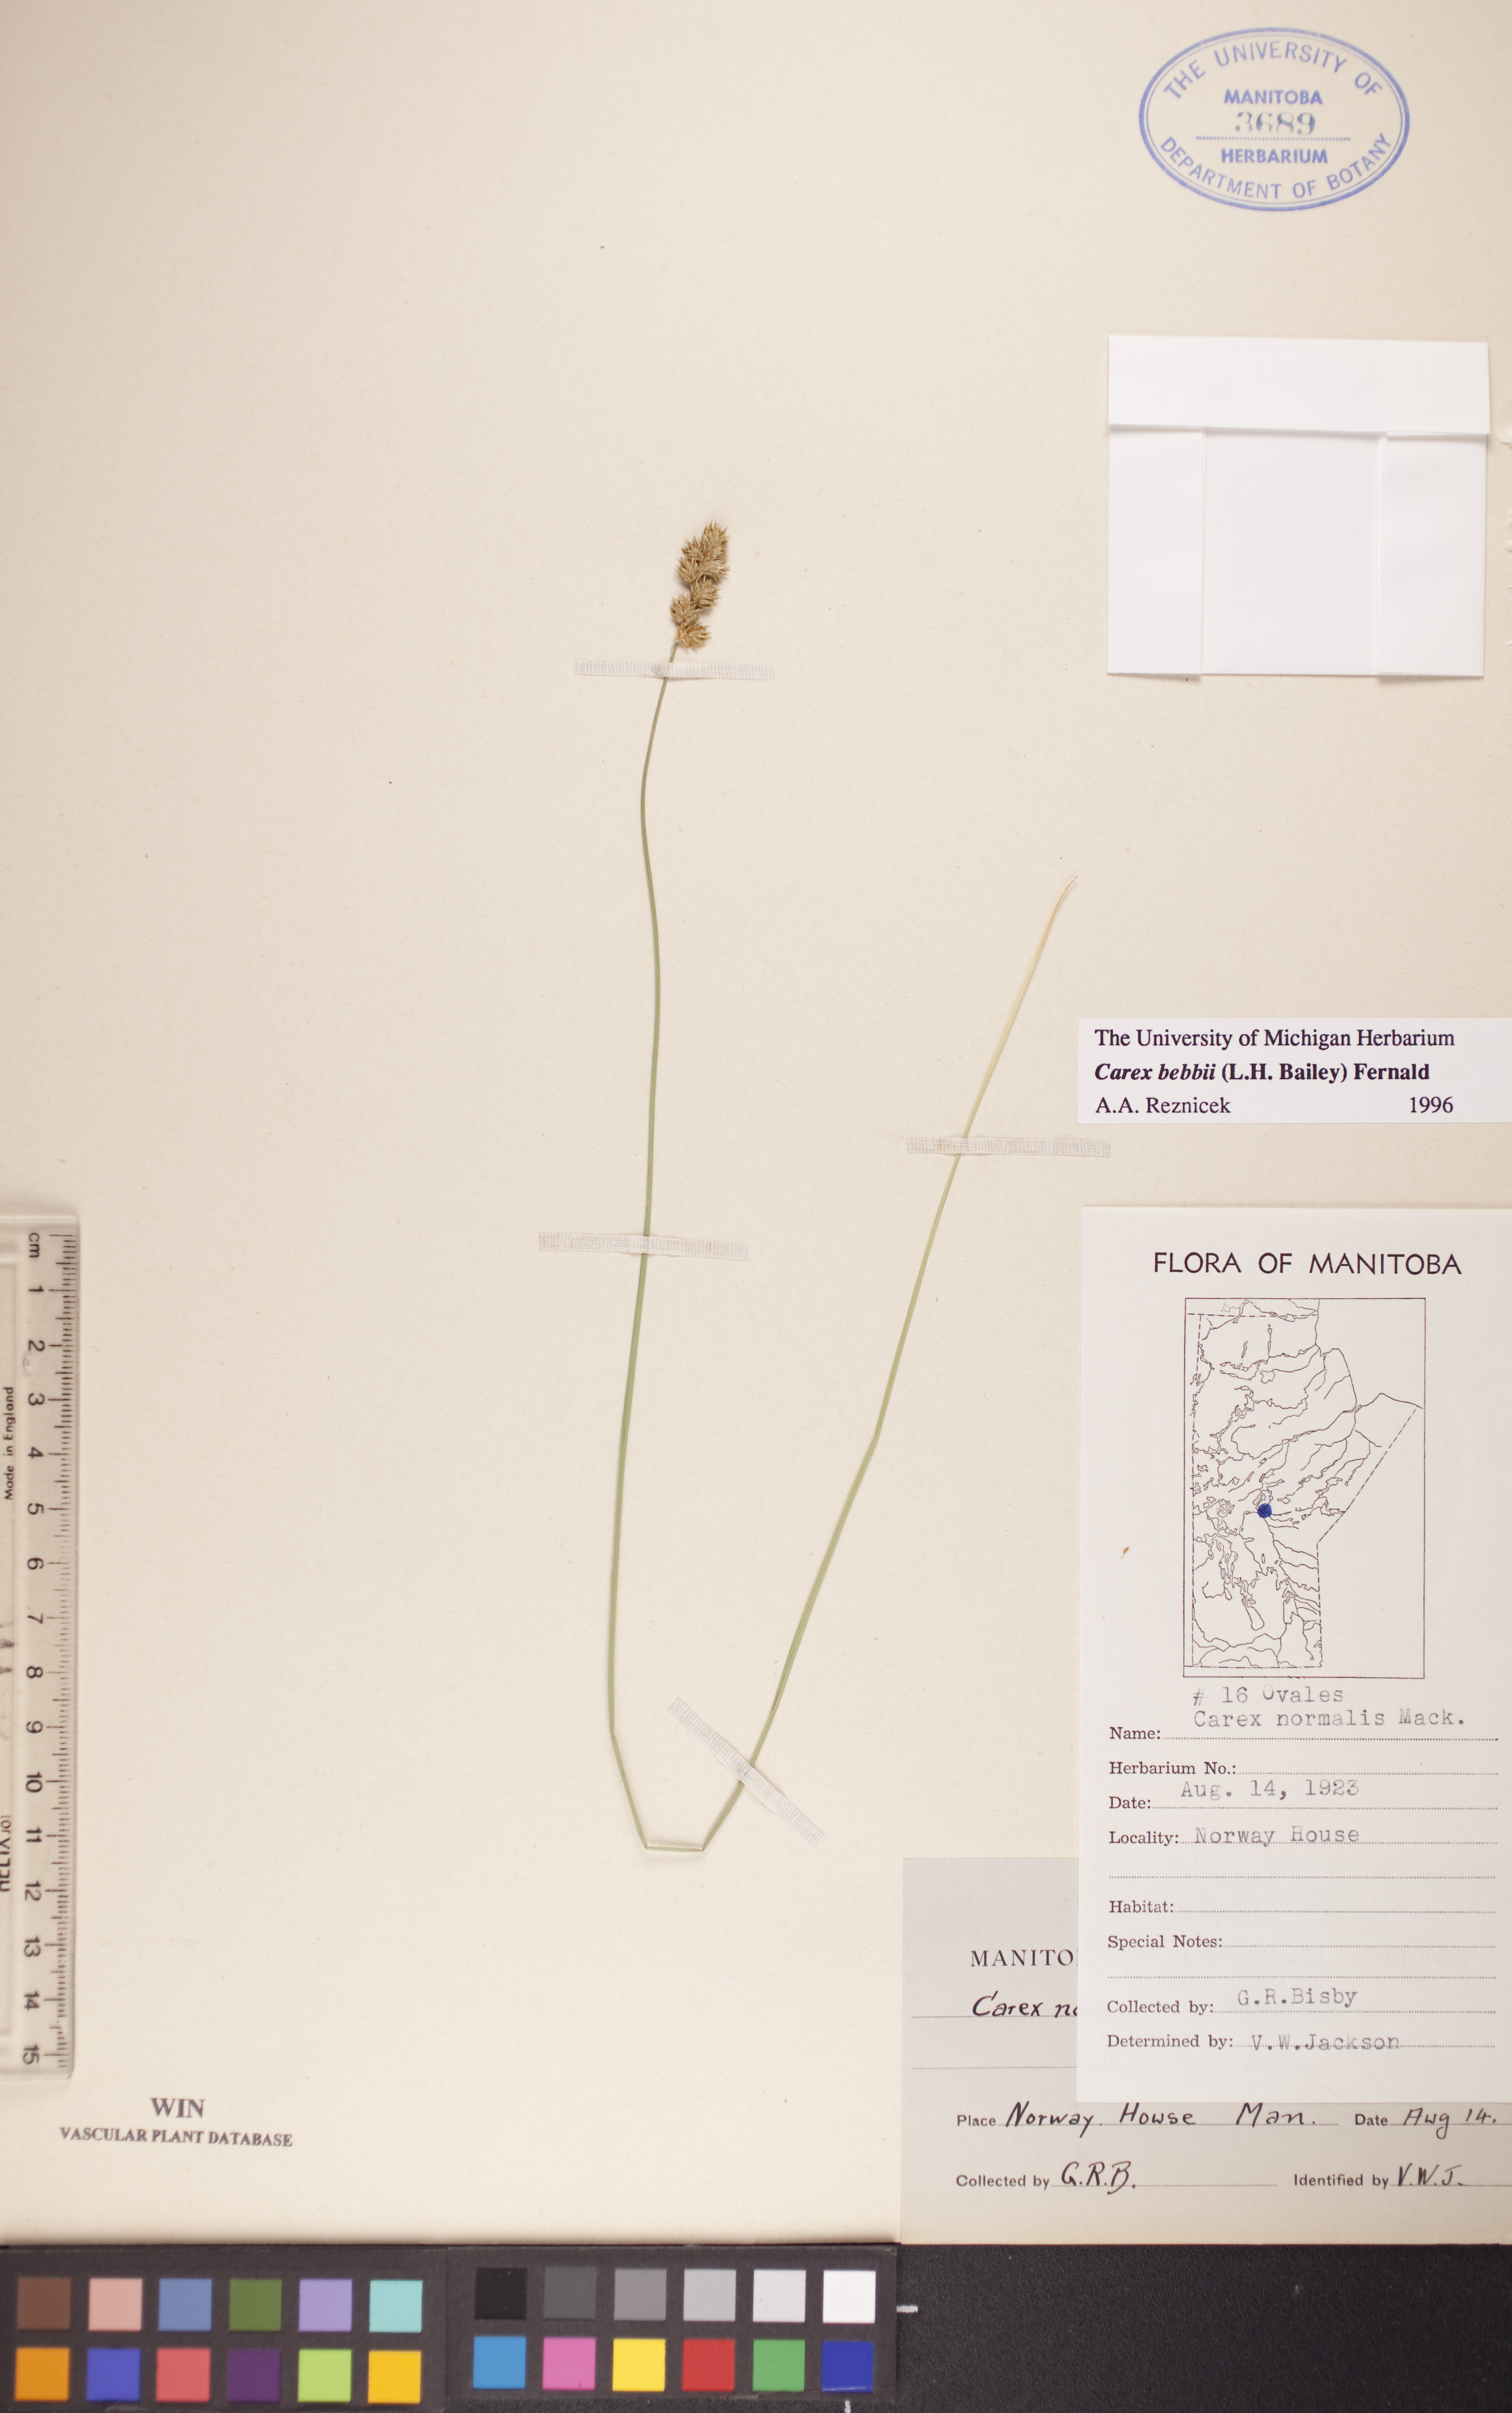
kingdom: Plantae
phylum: Tracheophyta
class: Liliopsida
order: Poales
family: Cyperaceae
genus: Carex
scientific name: Carex bebbii
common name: Bebb's sedge
